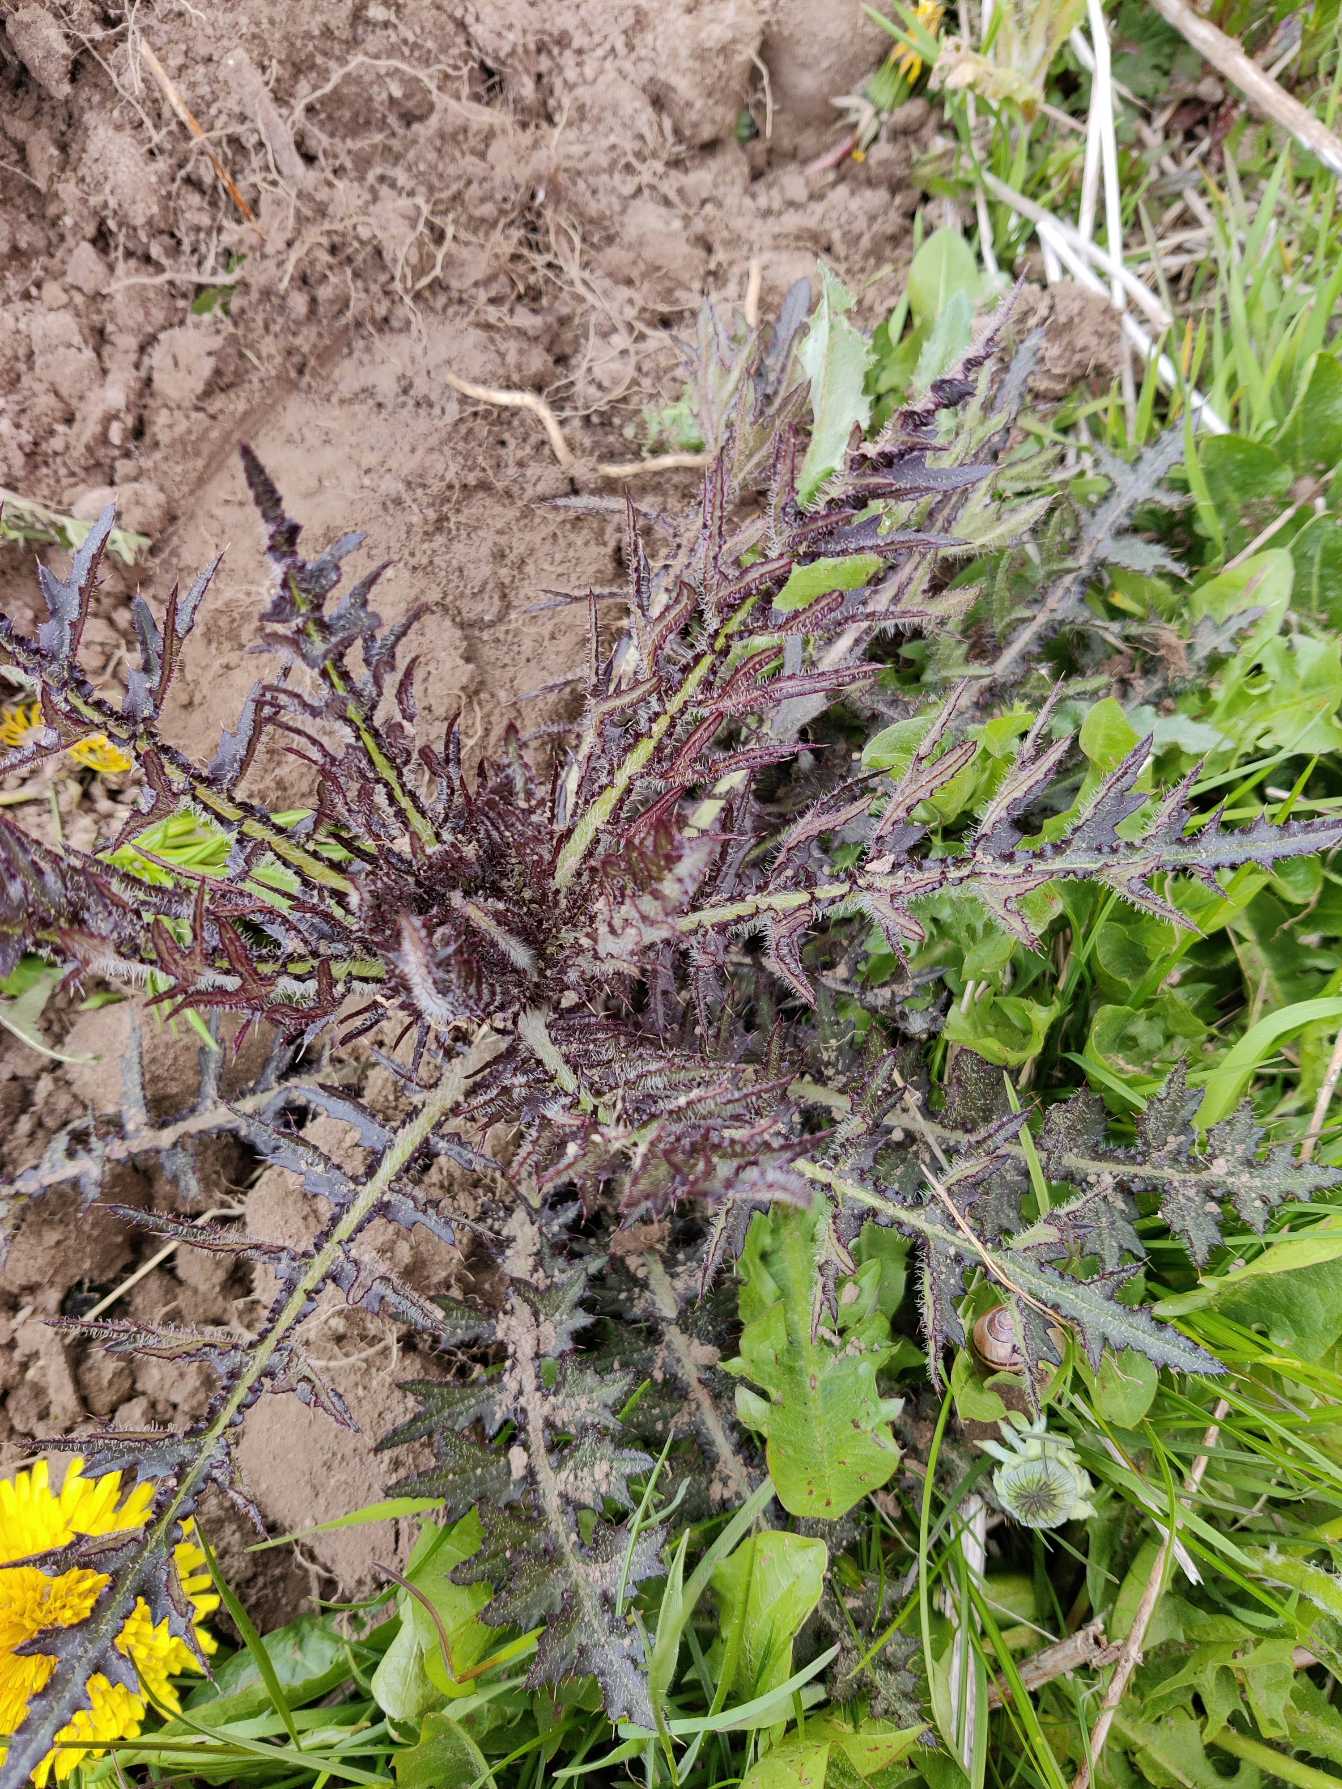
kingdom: Plantae
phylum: Tracheophyta
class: Magnoliopsida
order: Asterales
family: Asteraceae
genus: Cirsium
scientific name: Cirsium palustre
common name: Kær-tidsel
